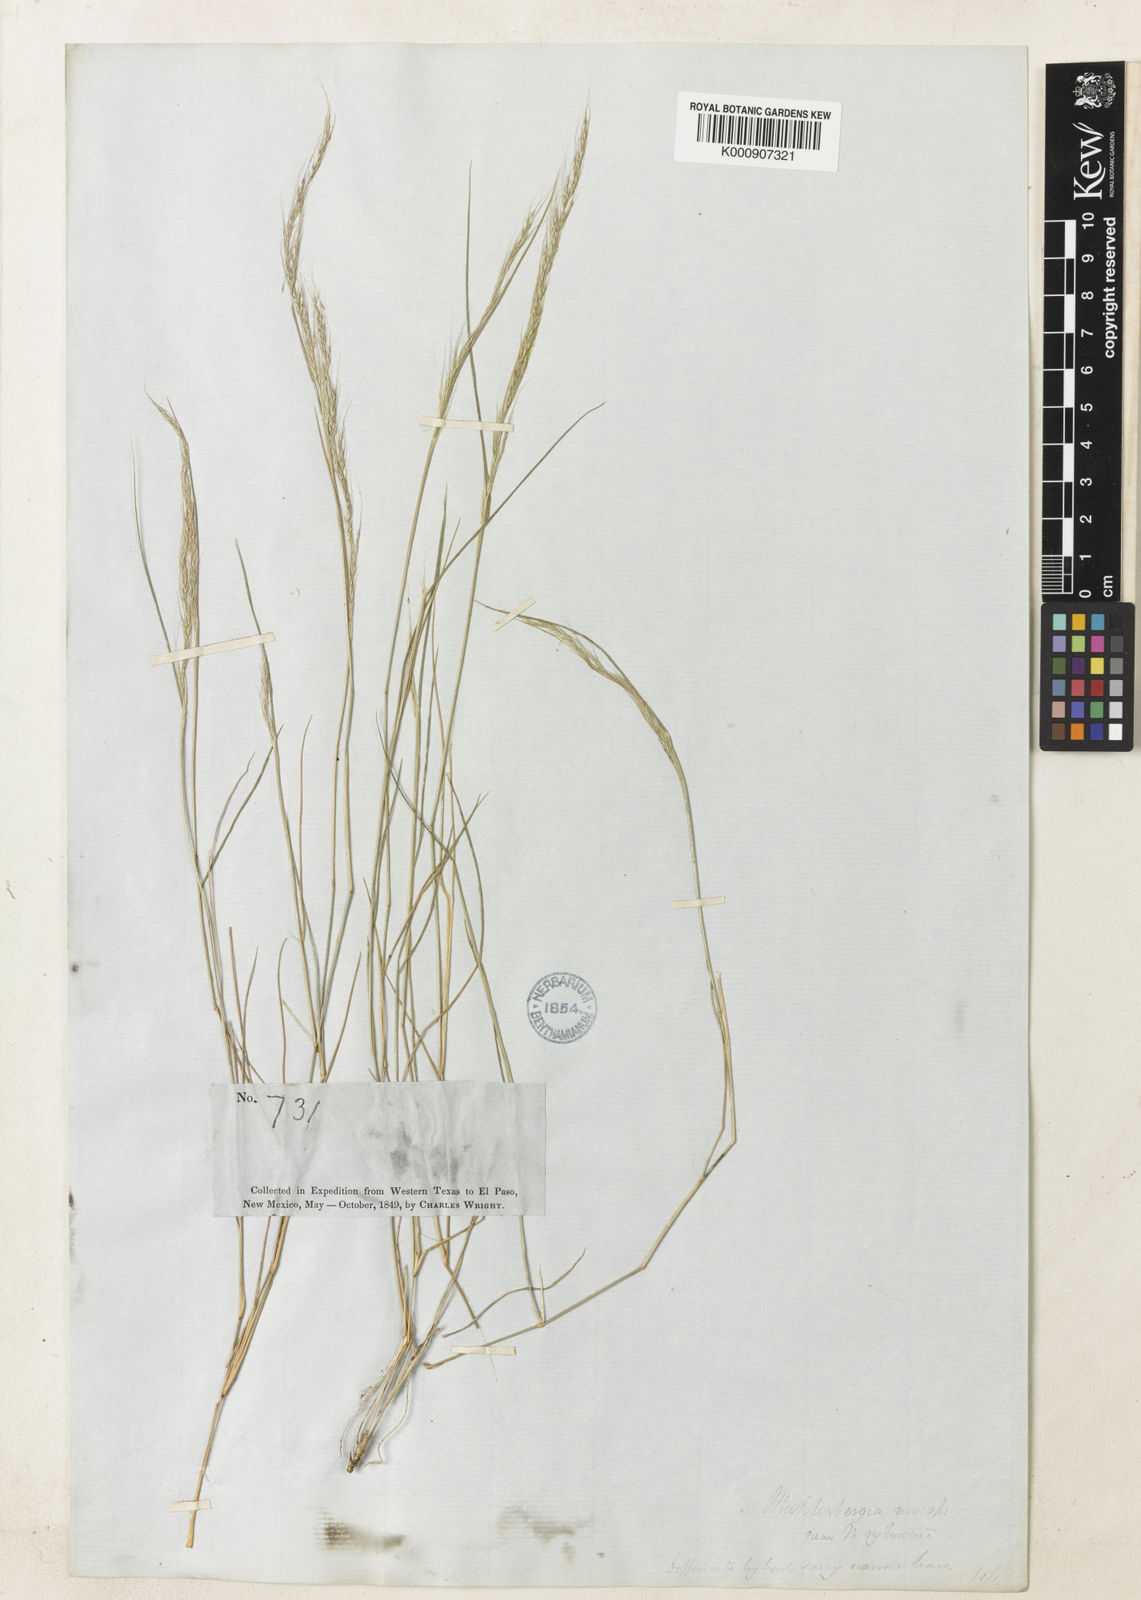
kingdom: Plantae
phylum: Tracheophyta
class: Liliopsida
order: Poales
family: Poaceae
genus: Muhlenbergia
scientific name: Muhlenbergia tenuifolia
